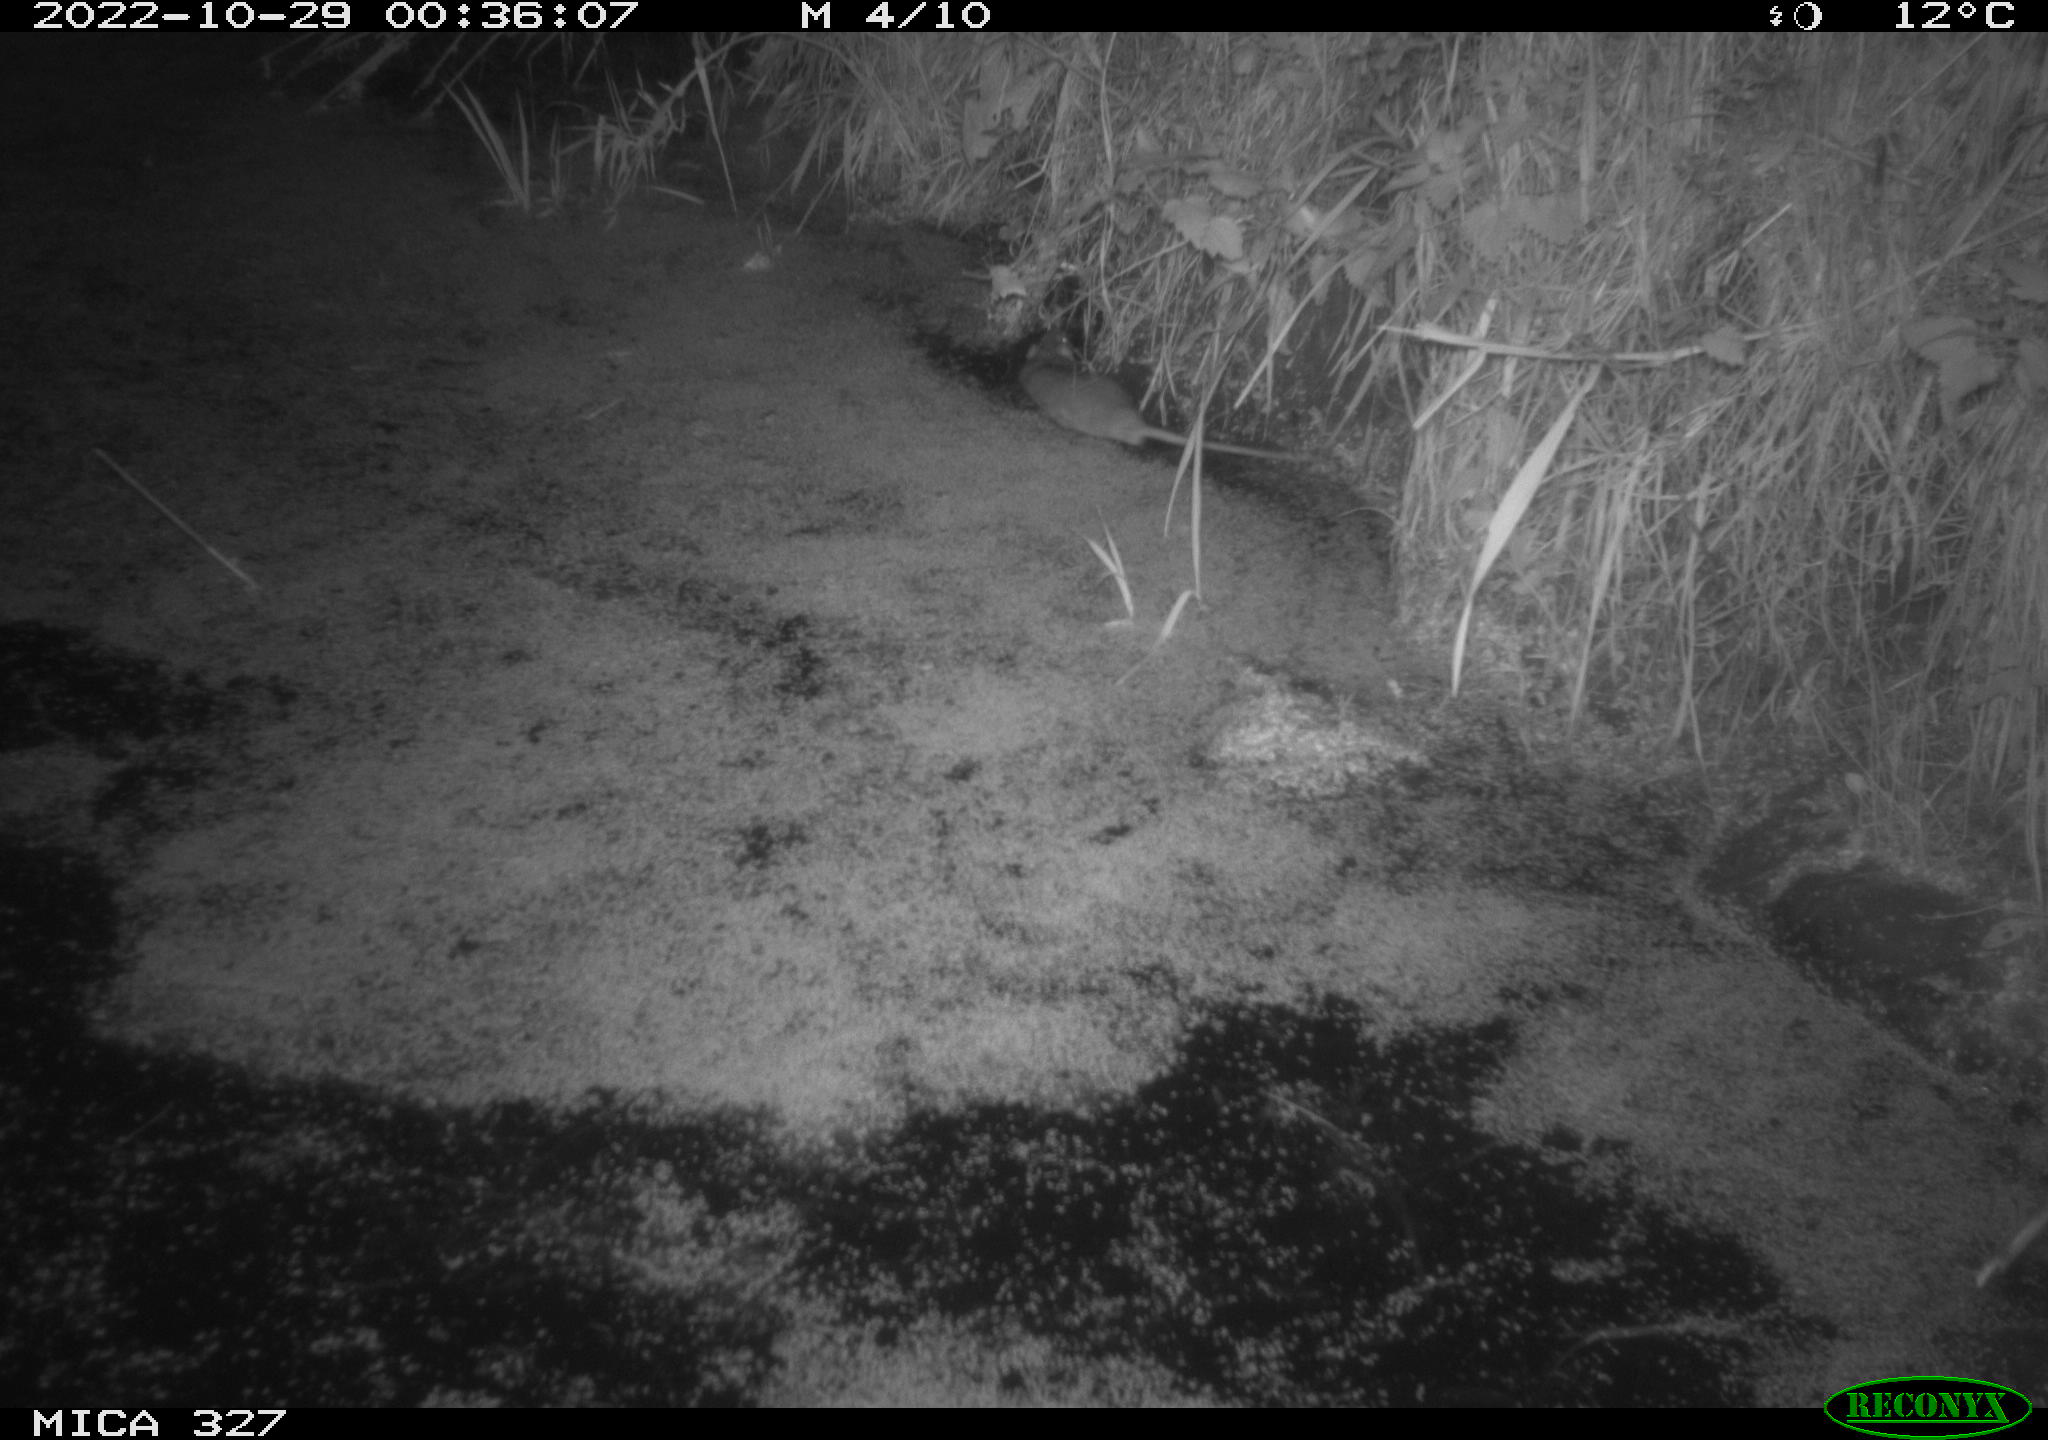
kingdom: Animalia
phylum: Chordata
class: Mammalia
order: Rodentia
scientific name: Rodentia
